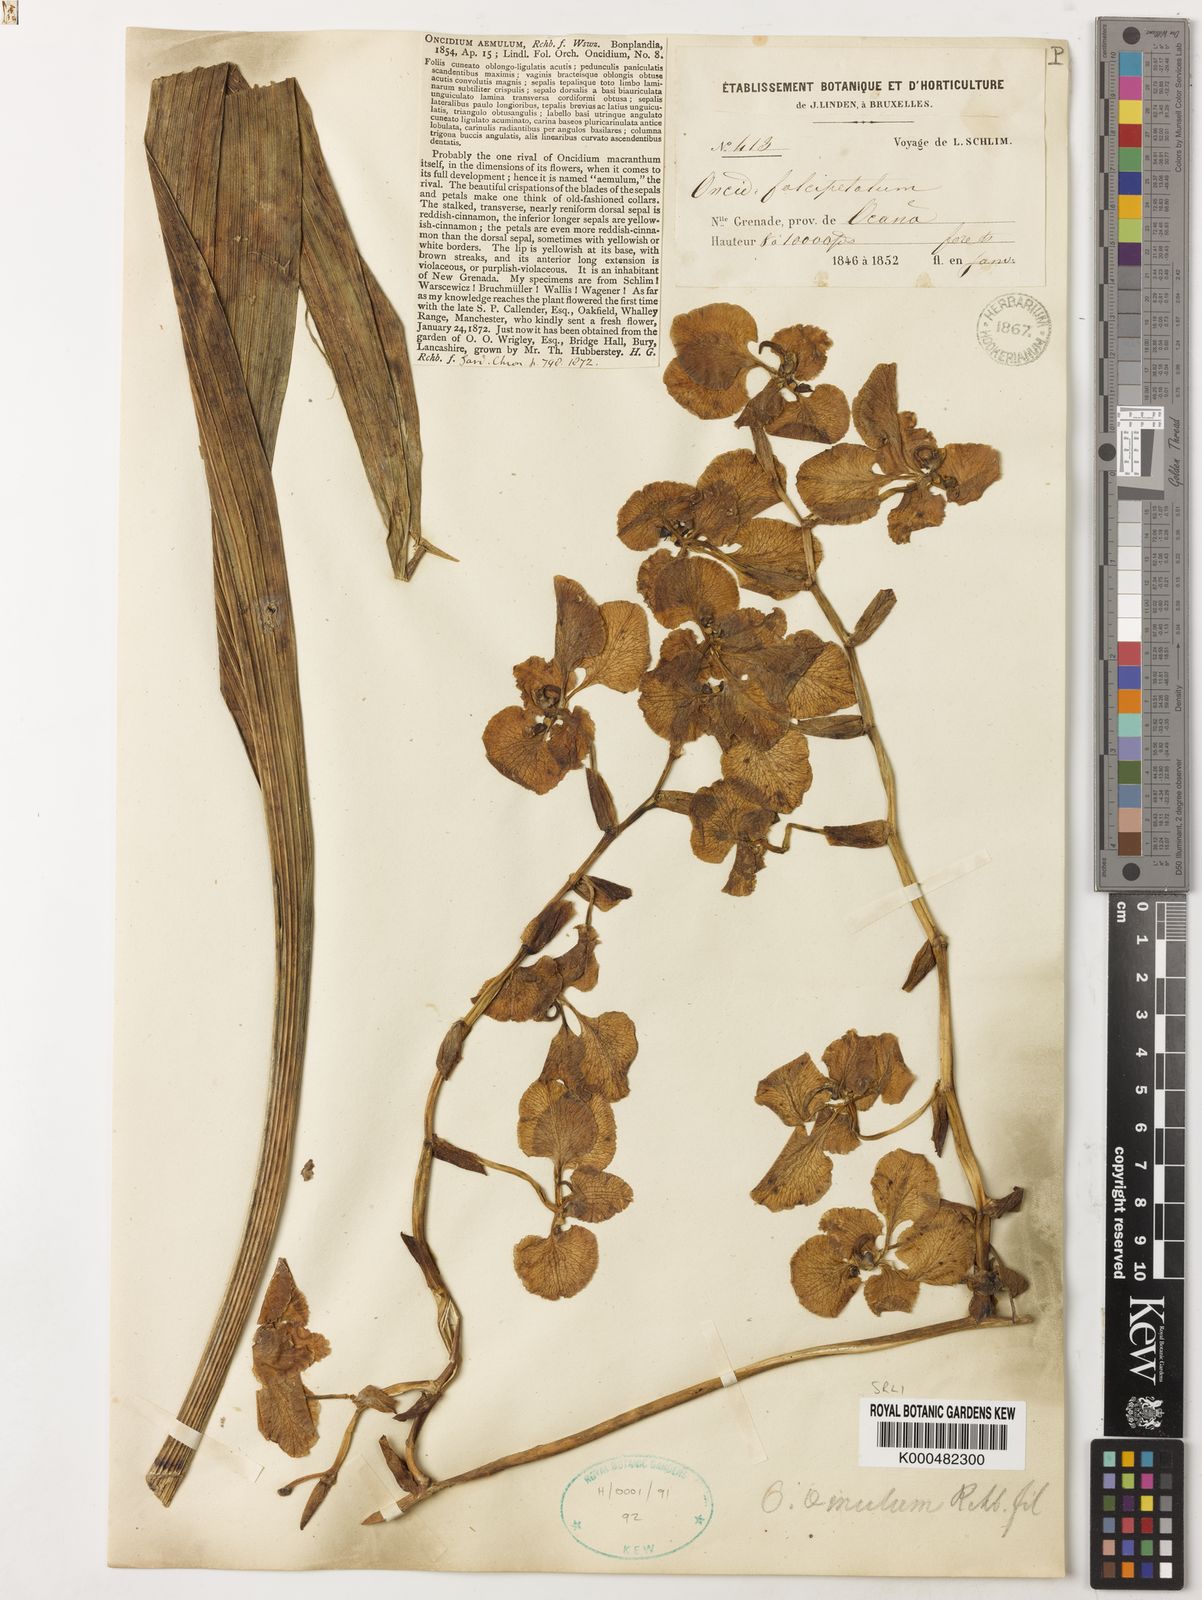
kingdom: Plantae
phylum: Tracheophyta
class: Liliopsida
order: Asparagales
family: Orchidaceae
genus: Cyrtochilum
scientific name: Cyrtochilum halteratum
